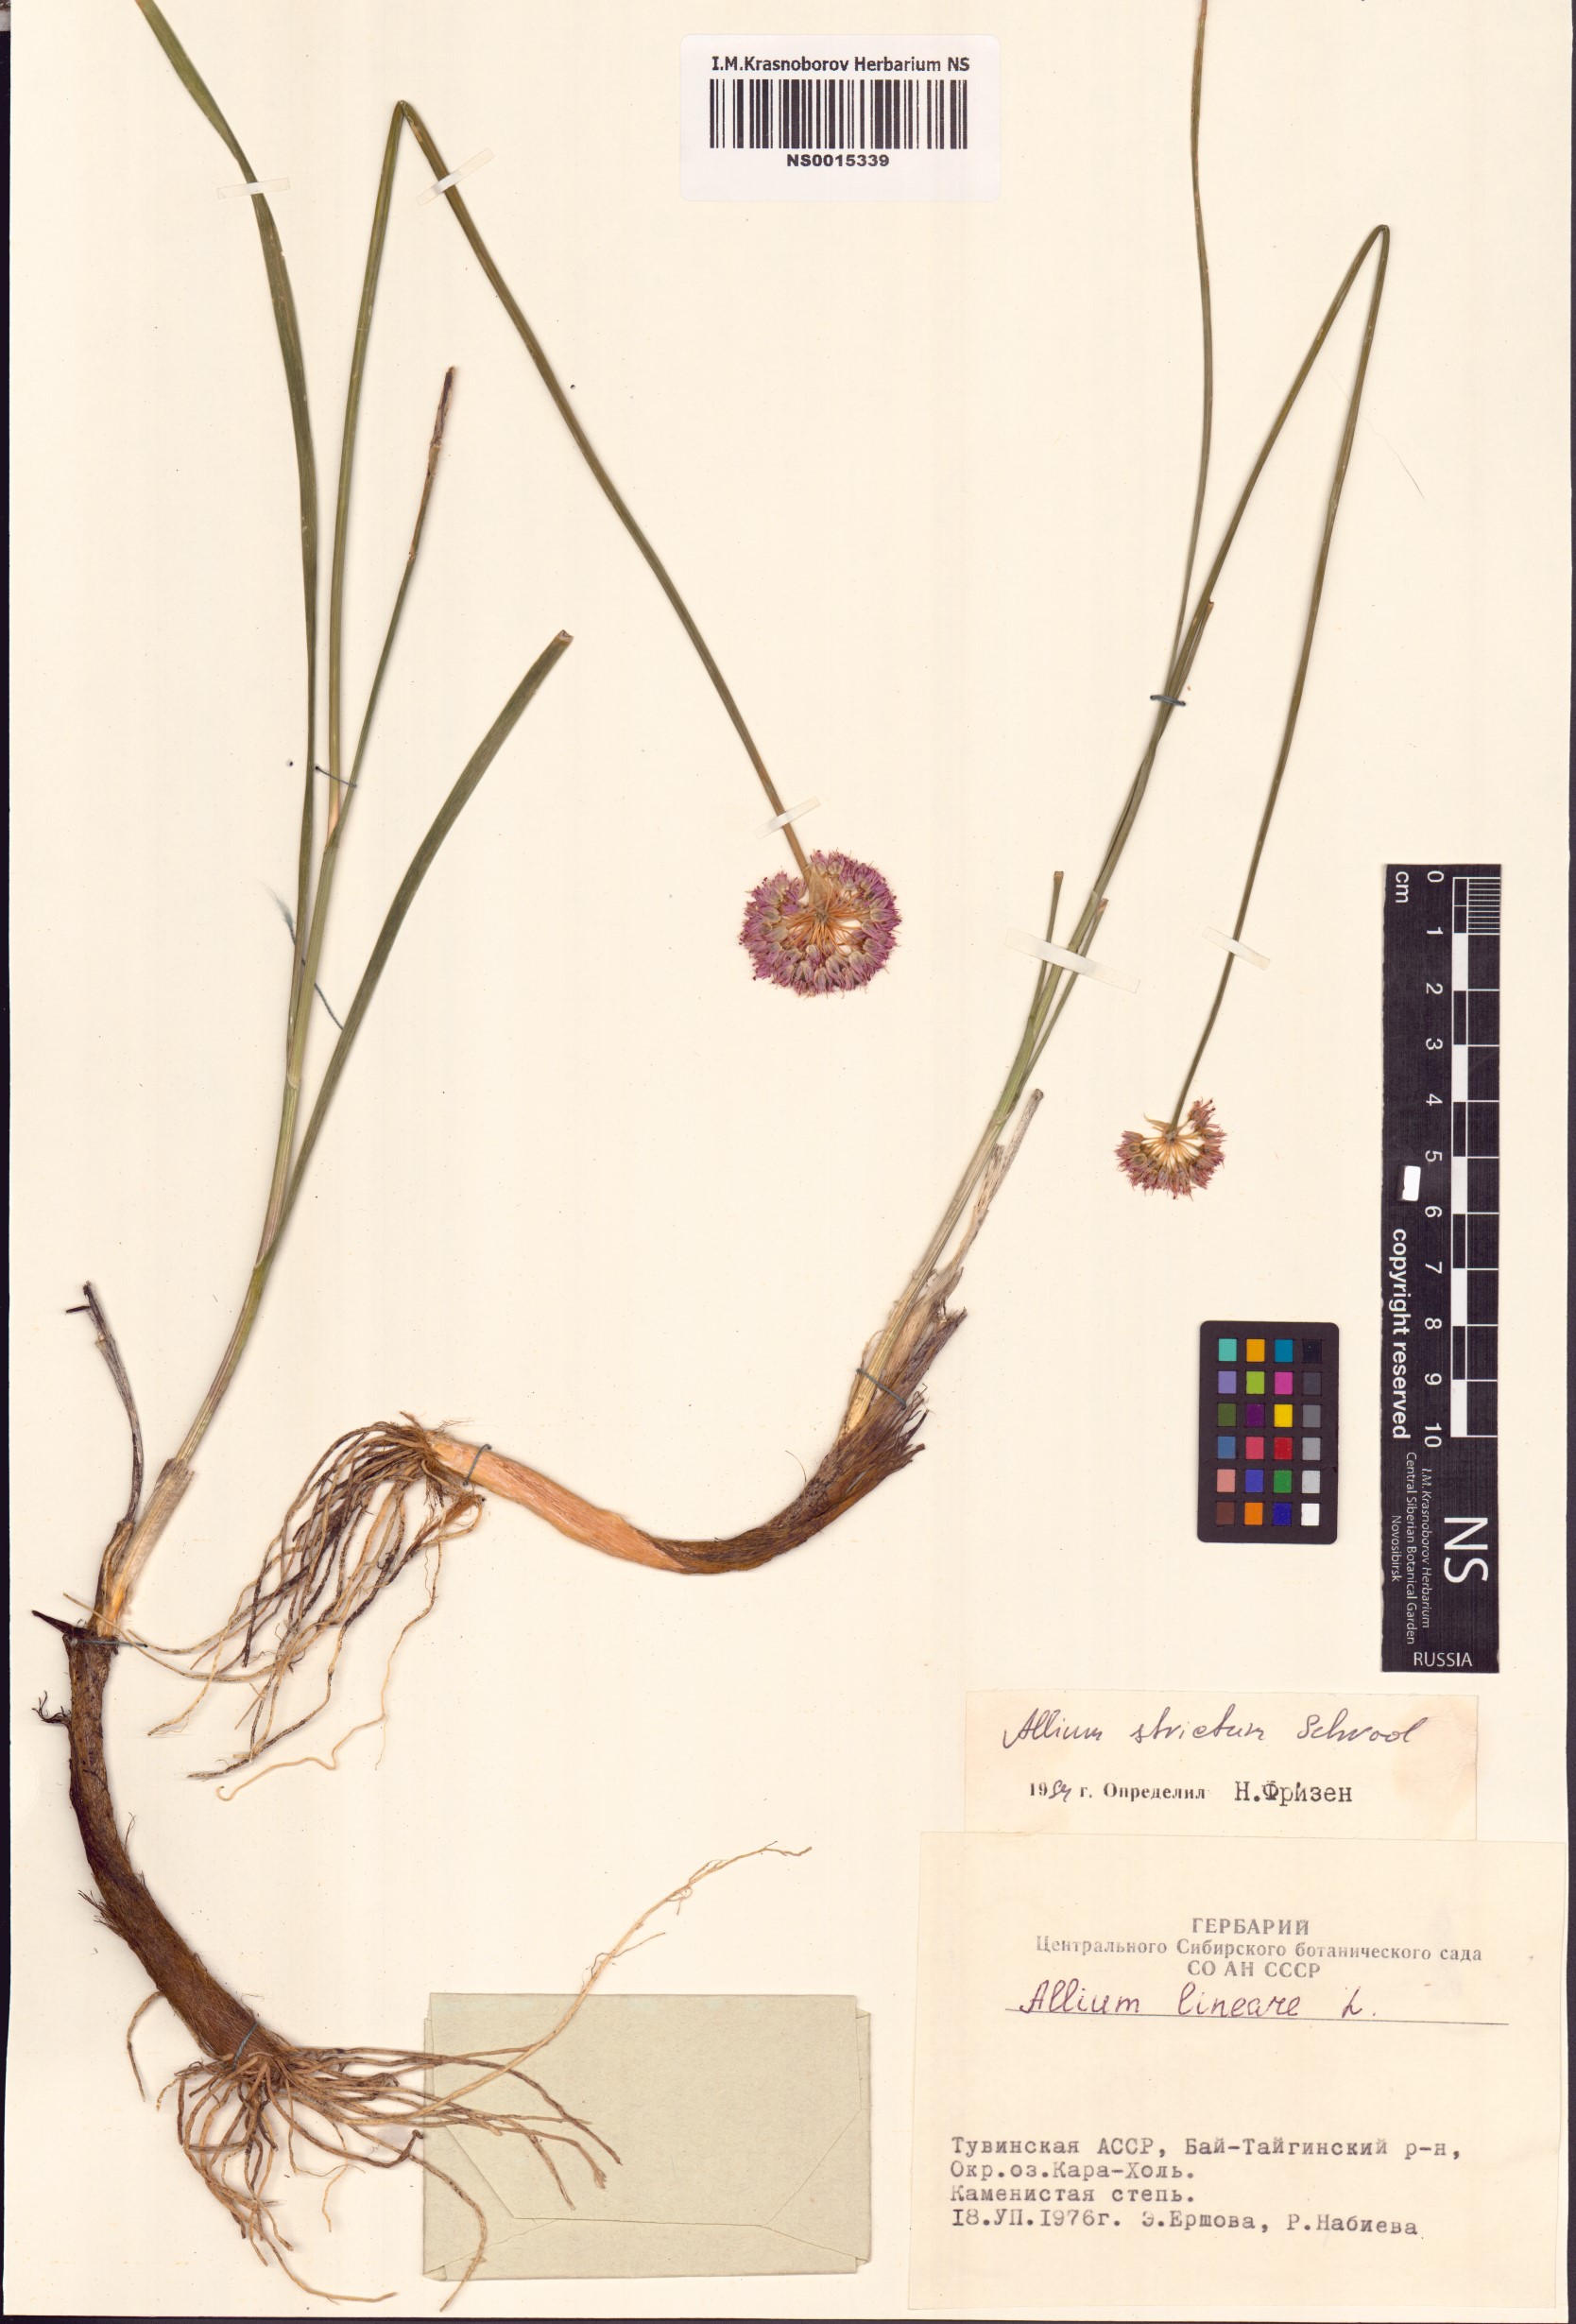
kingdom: Plantae
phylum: Tracheophyta
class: Liliopsida
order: Asparagales
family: Amaryllidaceae
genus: Allium
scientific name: Allium strictum
